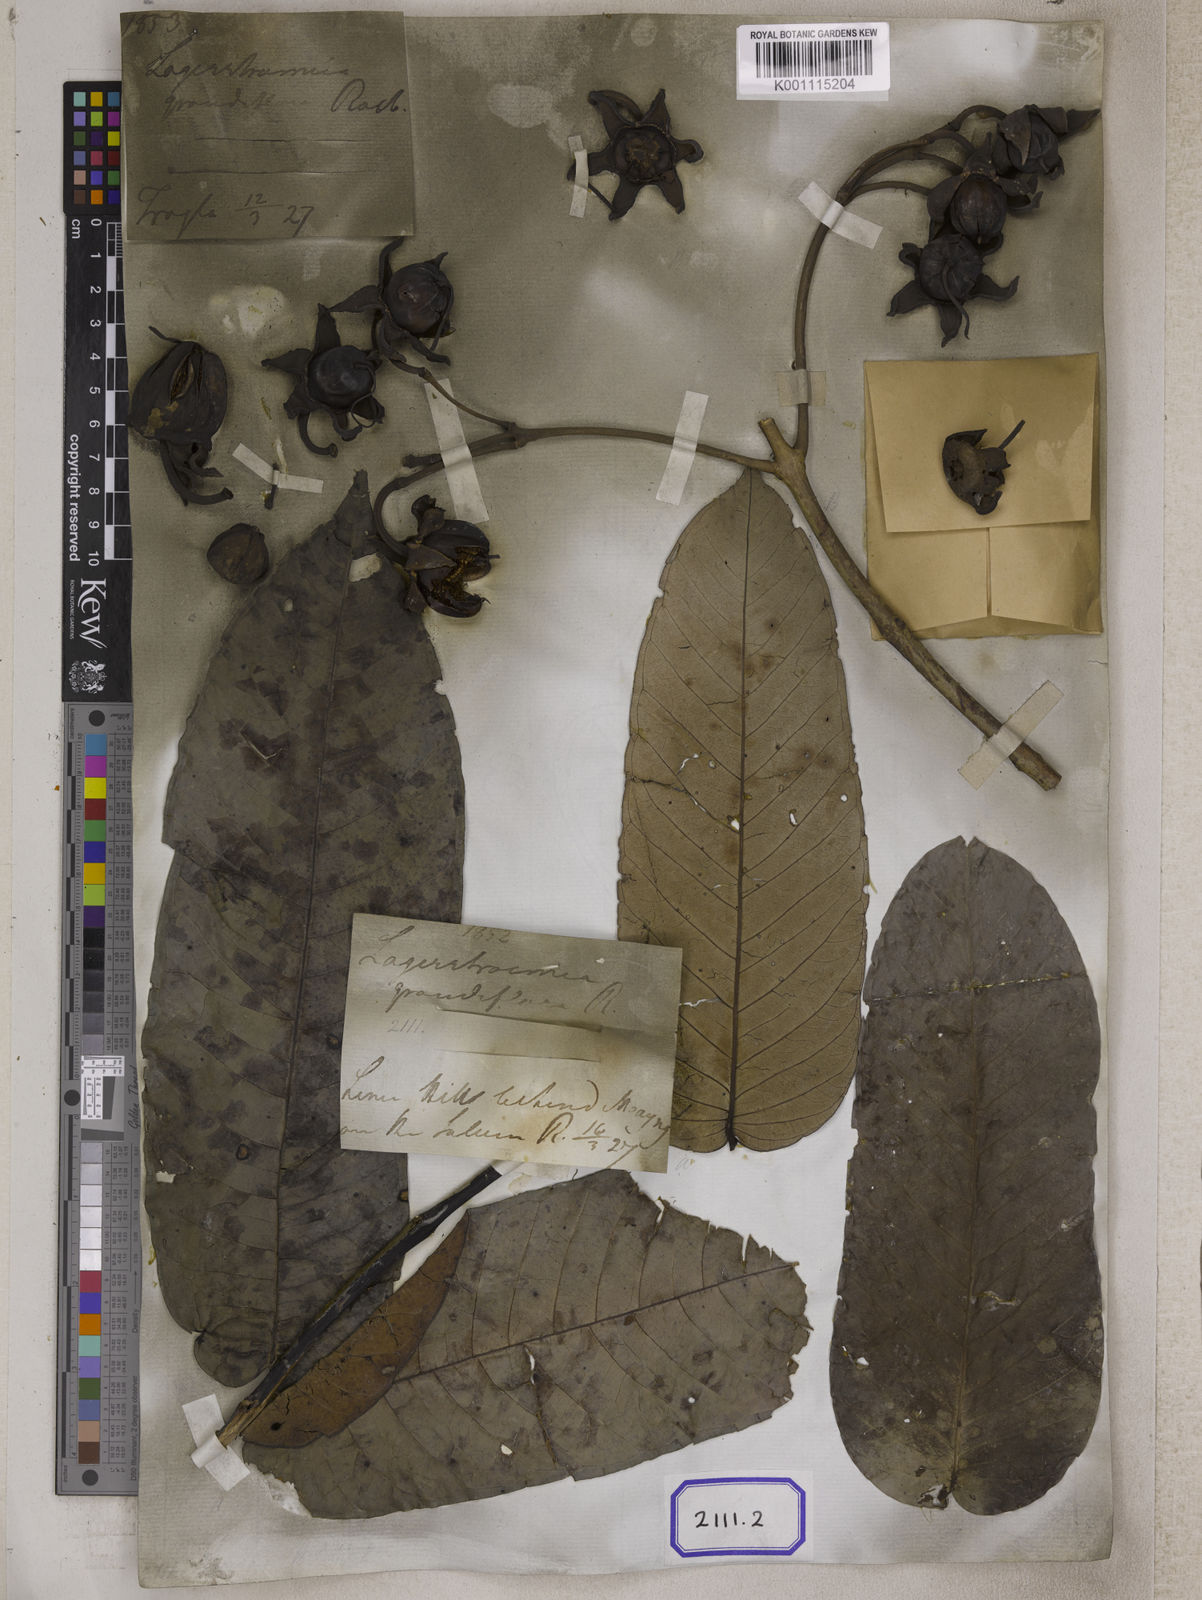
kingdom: Plantae
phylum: Tracheophyta
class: Magnoliopsida
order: Myrtales
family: Lythraceae
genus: Lagerstroemia
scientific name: Lagerstroemia
